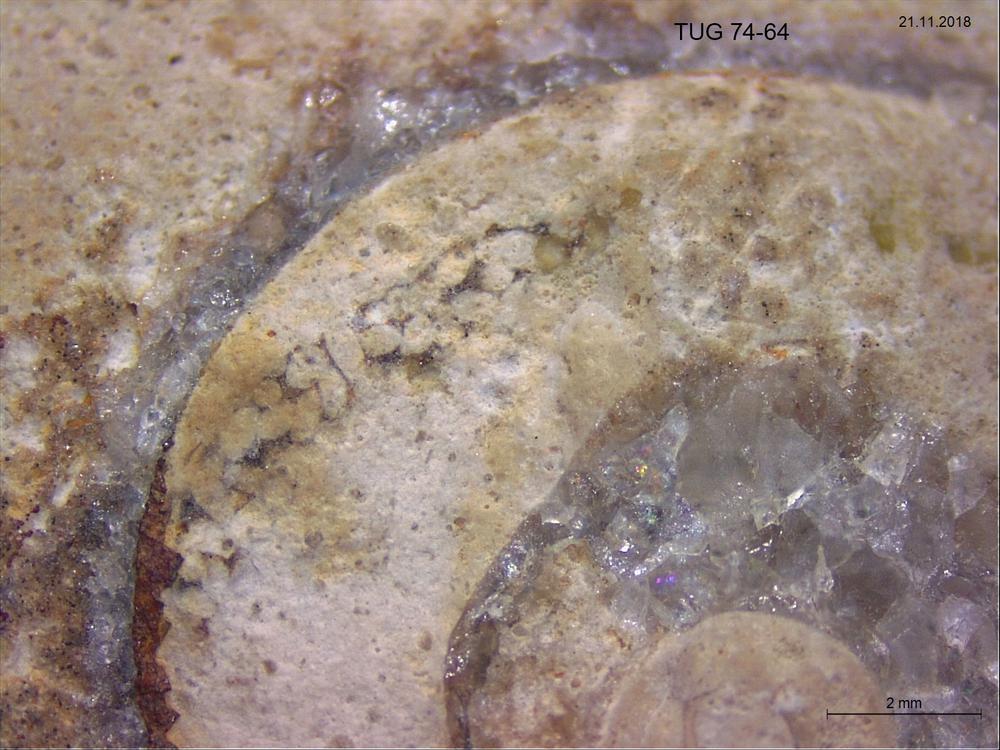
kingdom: Animalia
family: Coprulidae
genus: Coprulus
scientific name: Coprulus
